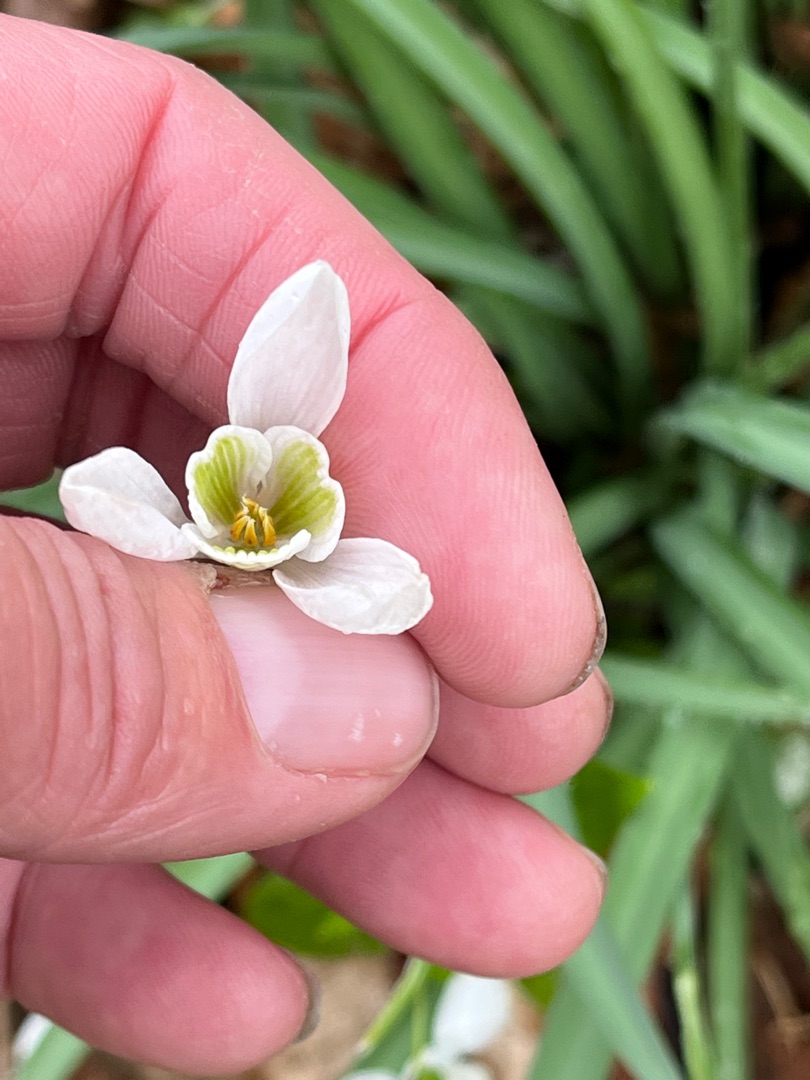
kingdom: Plantae
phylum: Tracheophyta
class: Liliopsida
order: Asparagales
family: Amaryllidaceae
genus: Galanthus
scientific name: Galanthus nivalis
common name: Vintergæk
